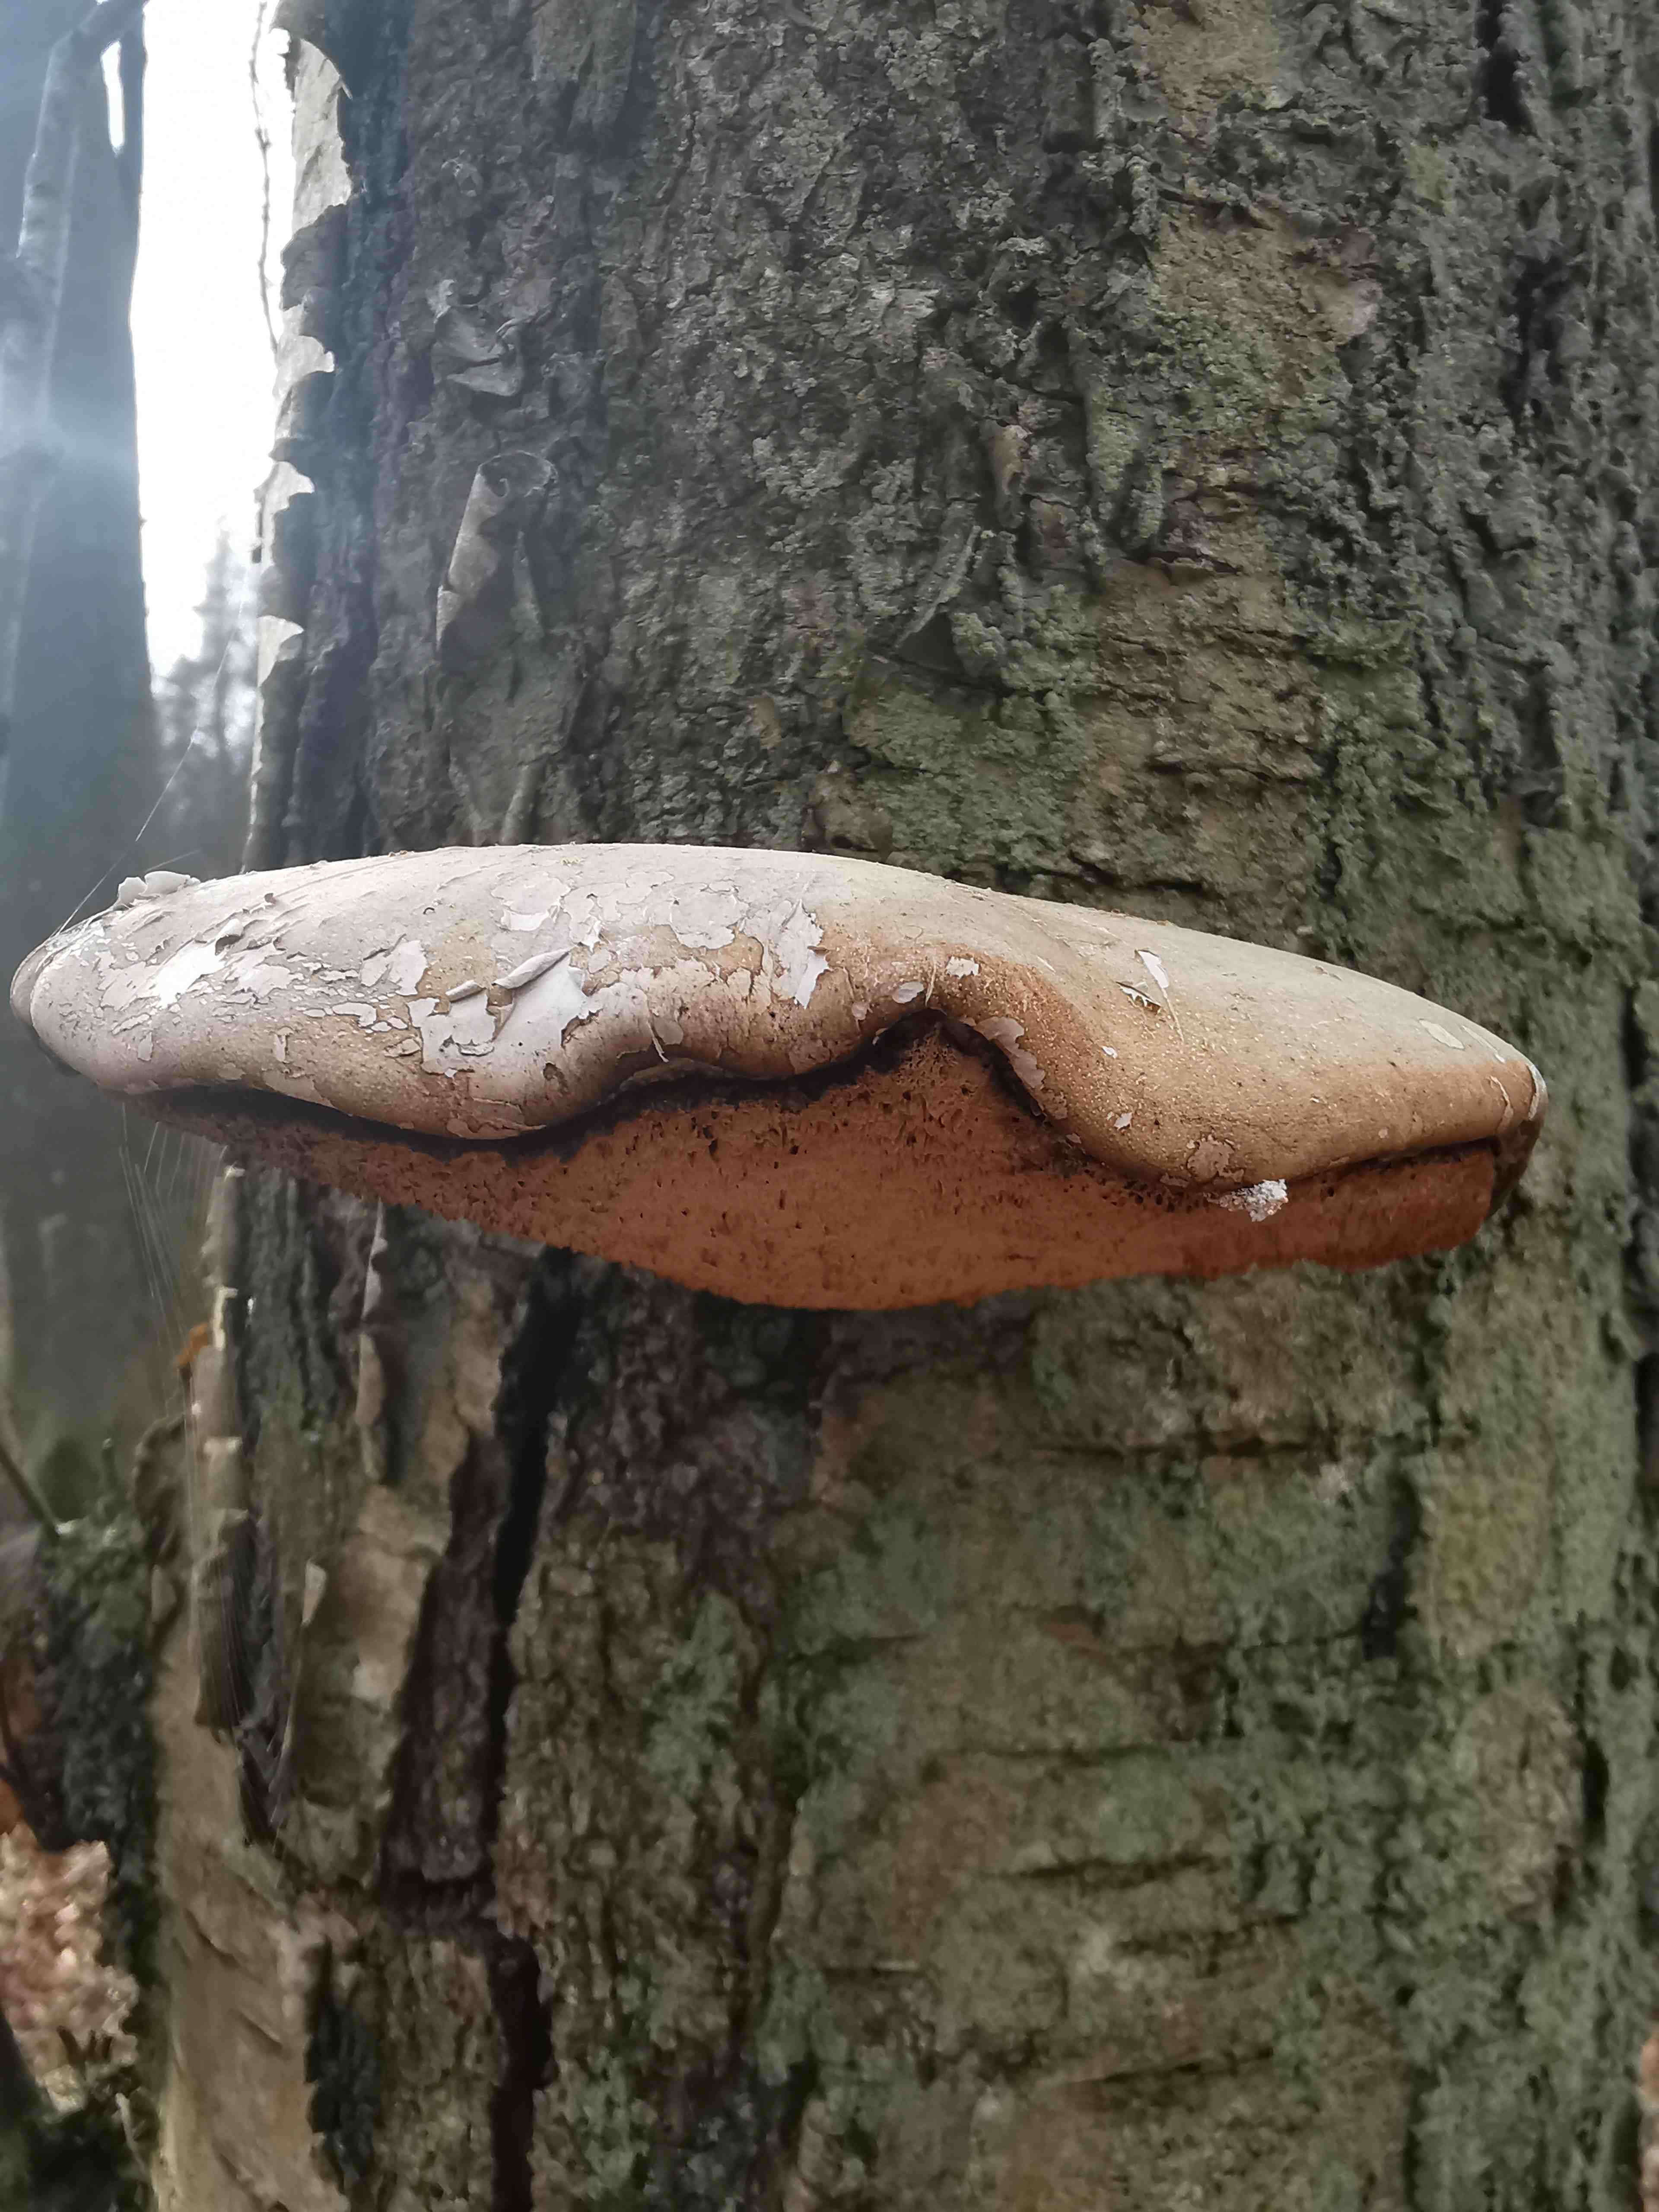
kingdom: Fungi
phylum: Basidiomycota
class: Agaricomycetes
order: Polyporales
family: Fomitopsidaceae
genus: Fomitopsis
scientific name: Fomitopsis betulina
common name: birkeporesvamp
